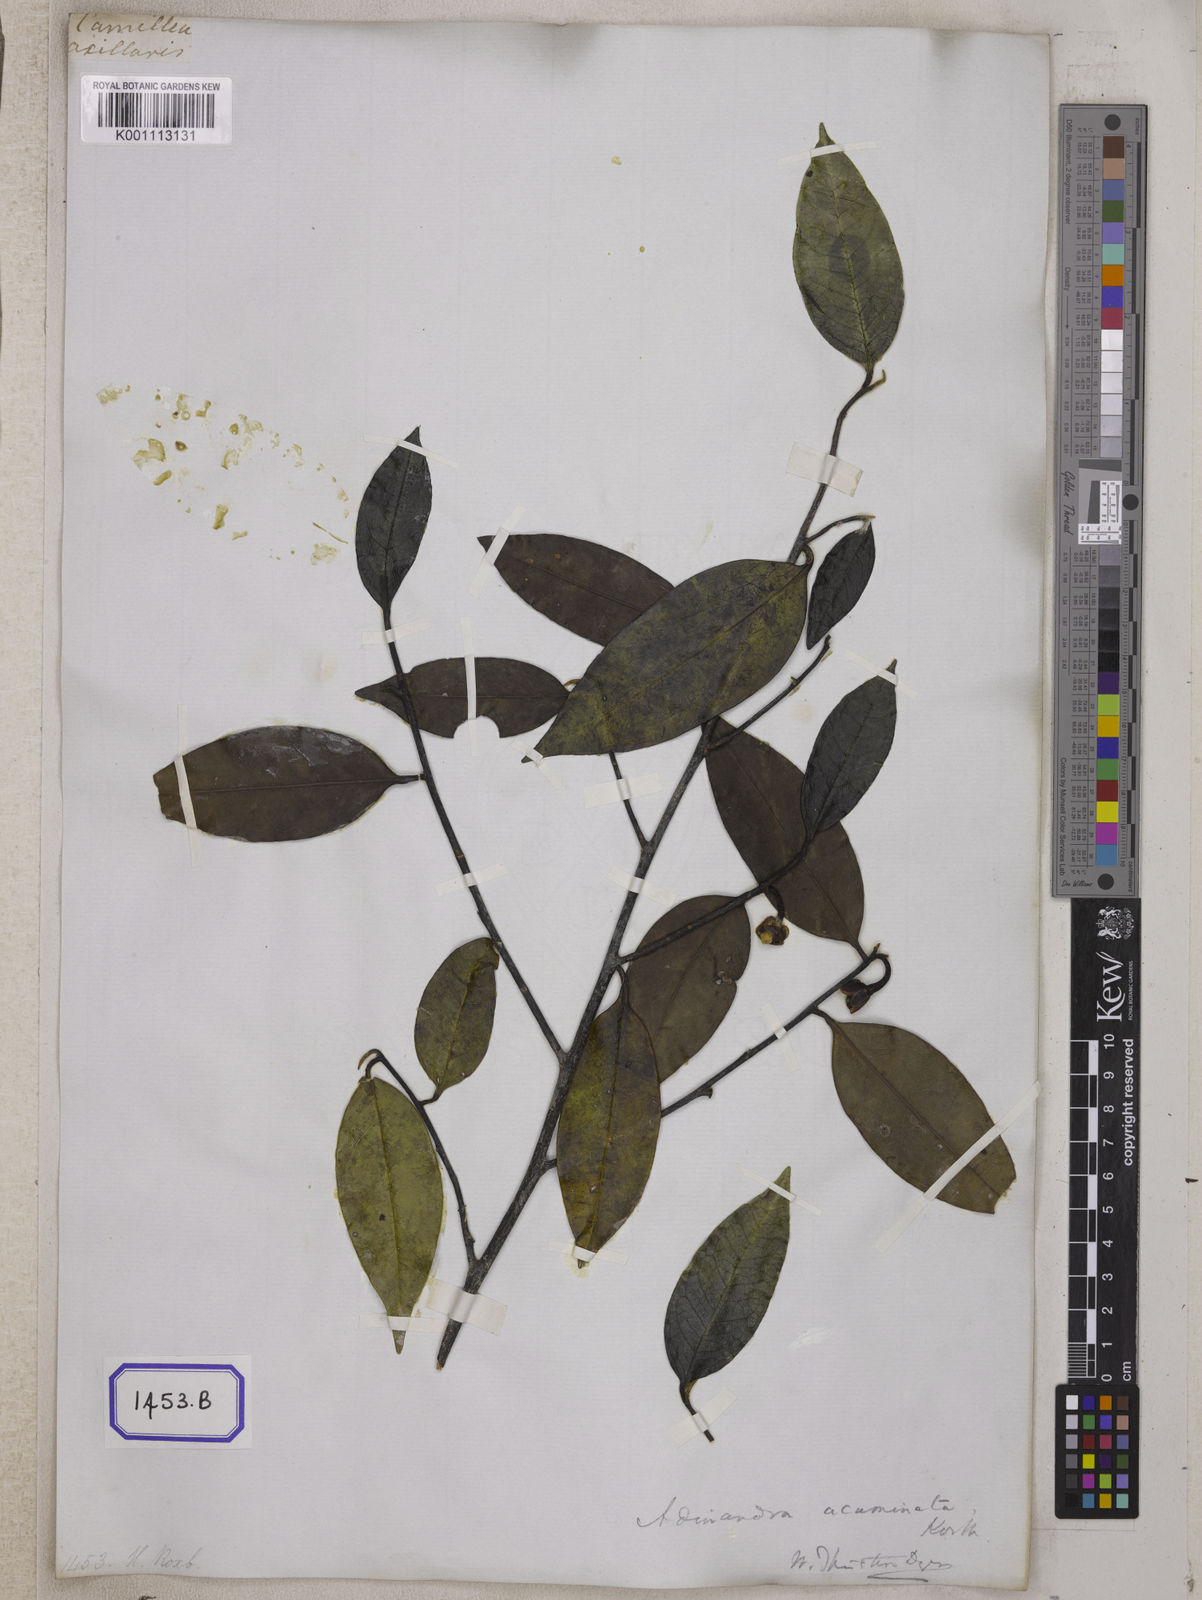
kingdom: Plantae
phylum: Tracheophyta
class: Magnoliopsida
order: Ericales
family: Pentaphylacaceae
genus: Adinandra
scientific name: Adinandra acuminata
